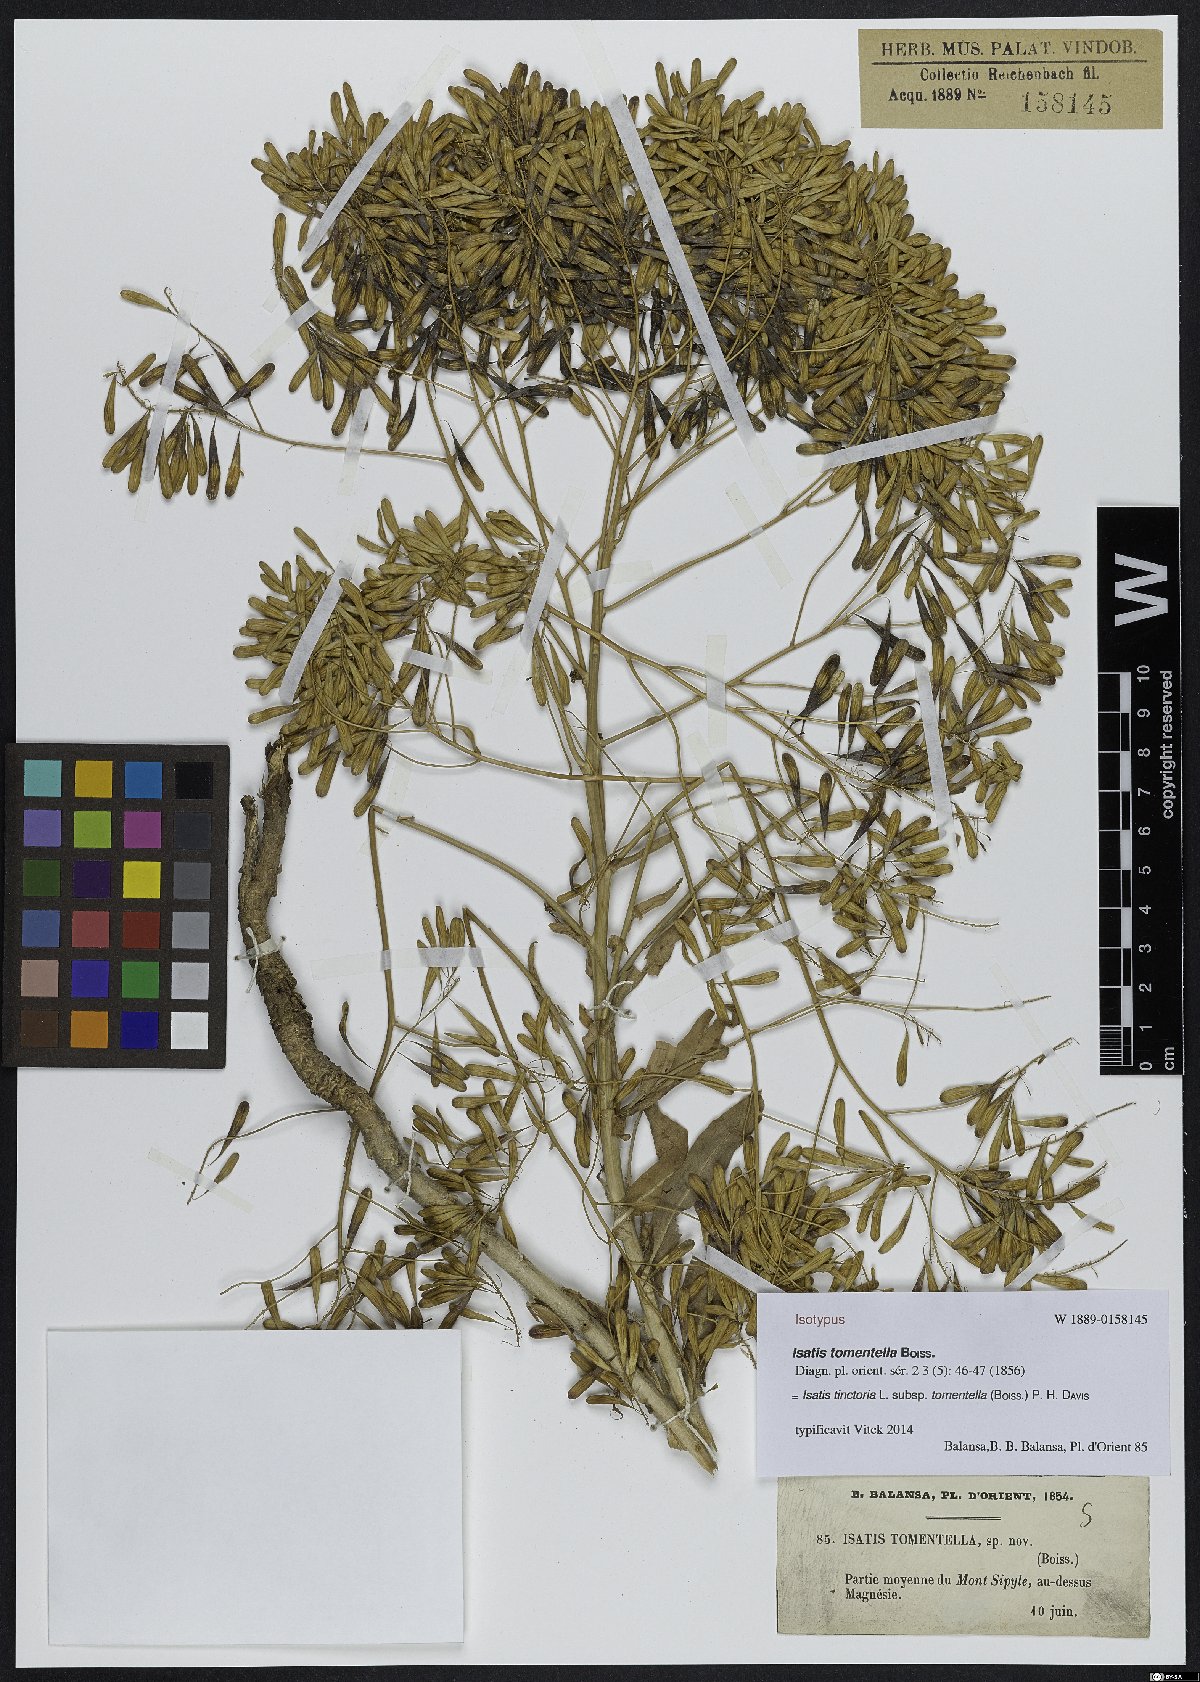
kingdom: Plantae
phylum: Tracheophyta
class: Magnoliopsida
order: Brassicales
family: Brassicaceae
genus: Isatis
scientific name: Isatis tomentella
